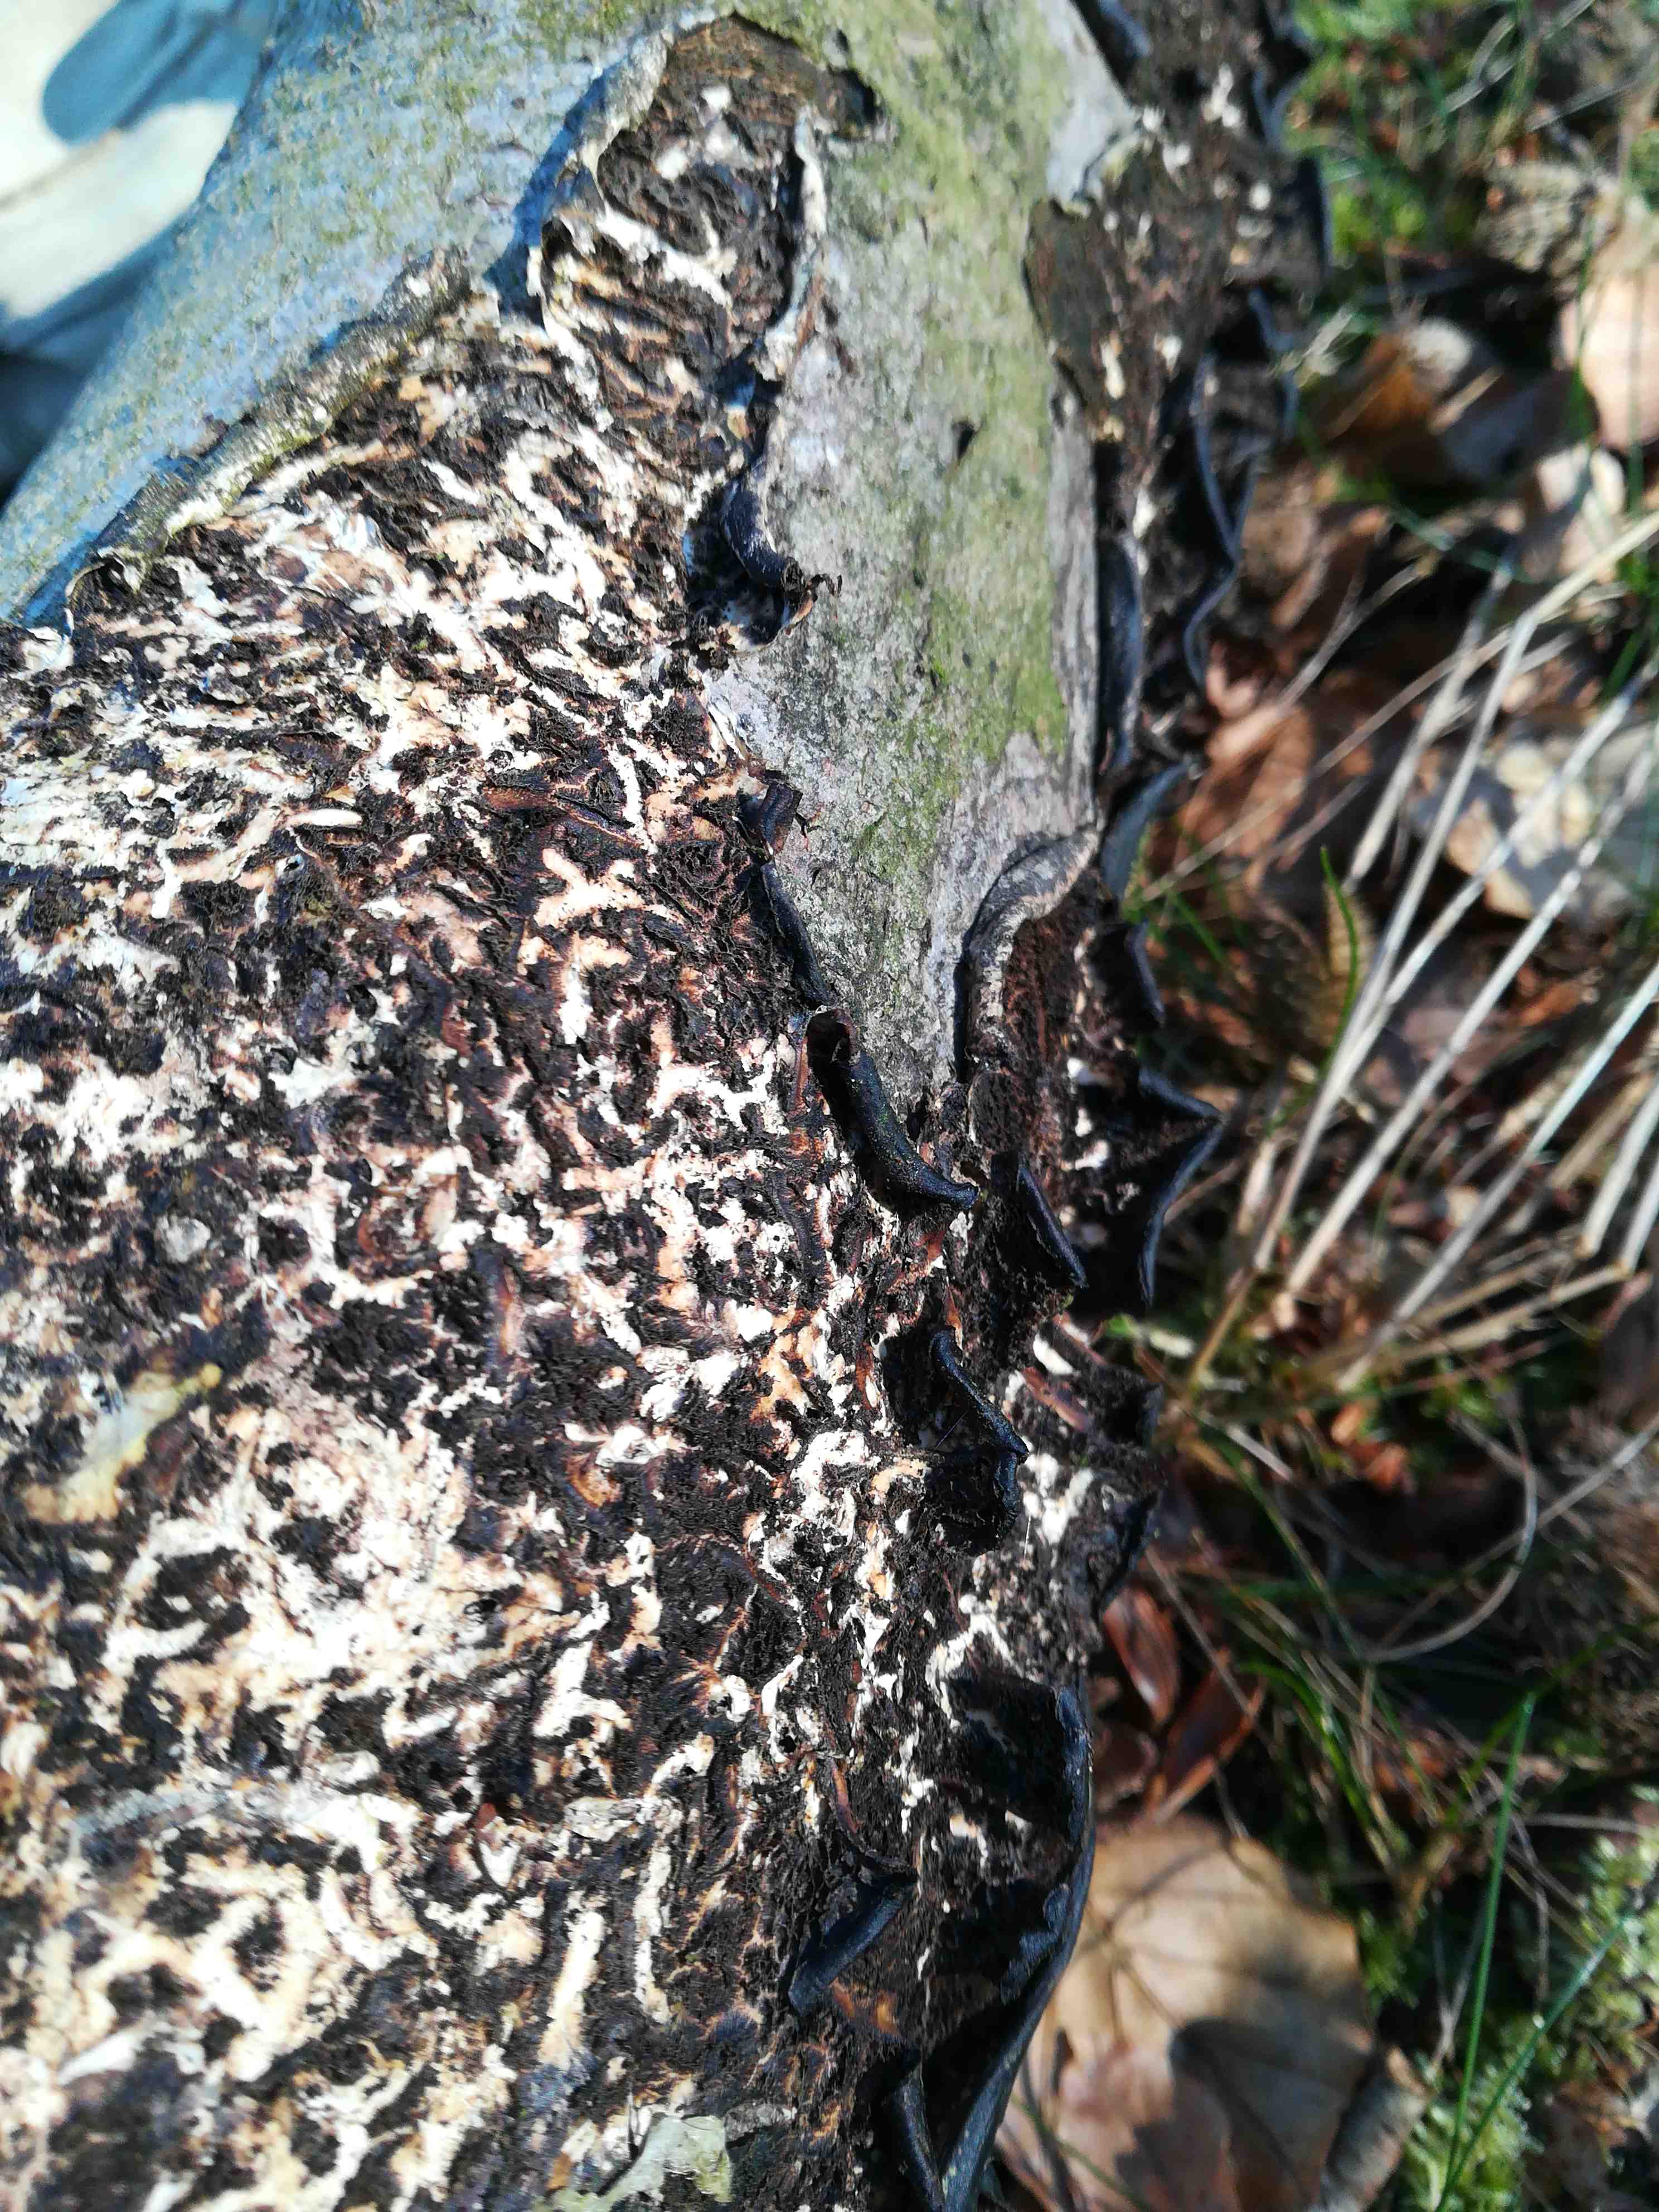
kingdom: Fungi
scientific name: Fungi
